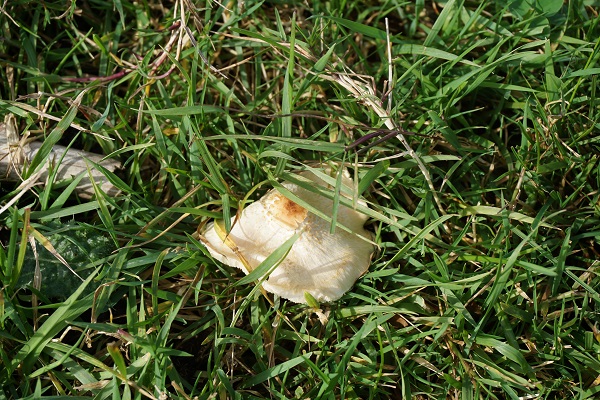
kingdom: Fungi
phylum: Basidiomycota
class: Agaricomycetes
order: Agaricales
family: Agaricaceae
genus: Lepiota
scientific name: Lepiota cristata
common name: stinkende parasolhat
